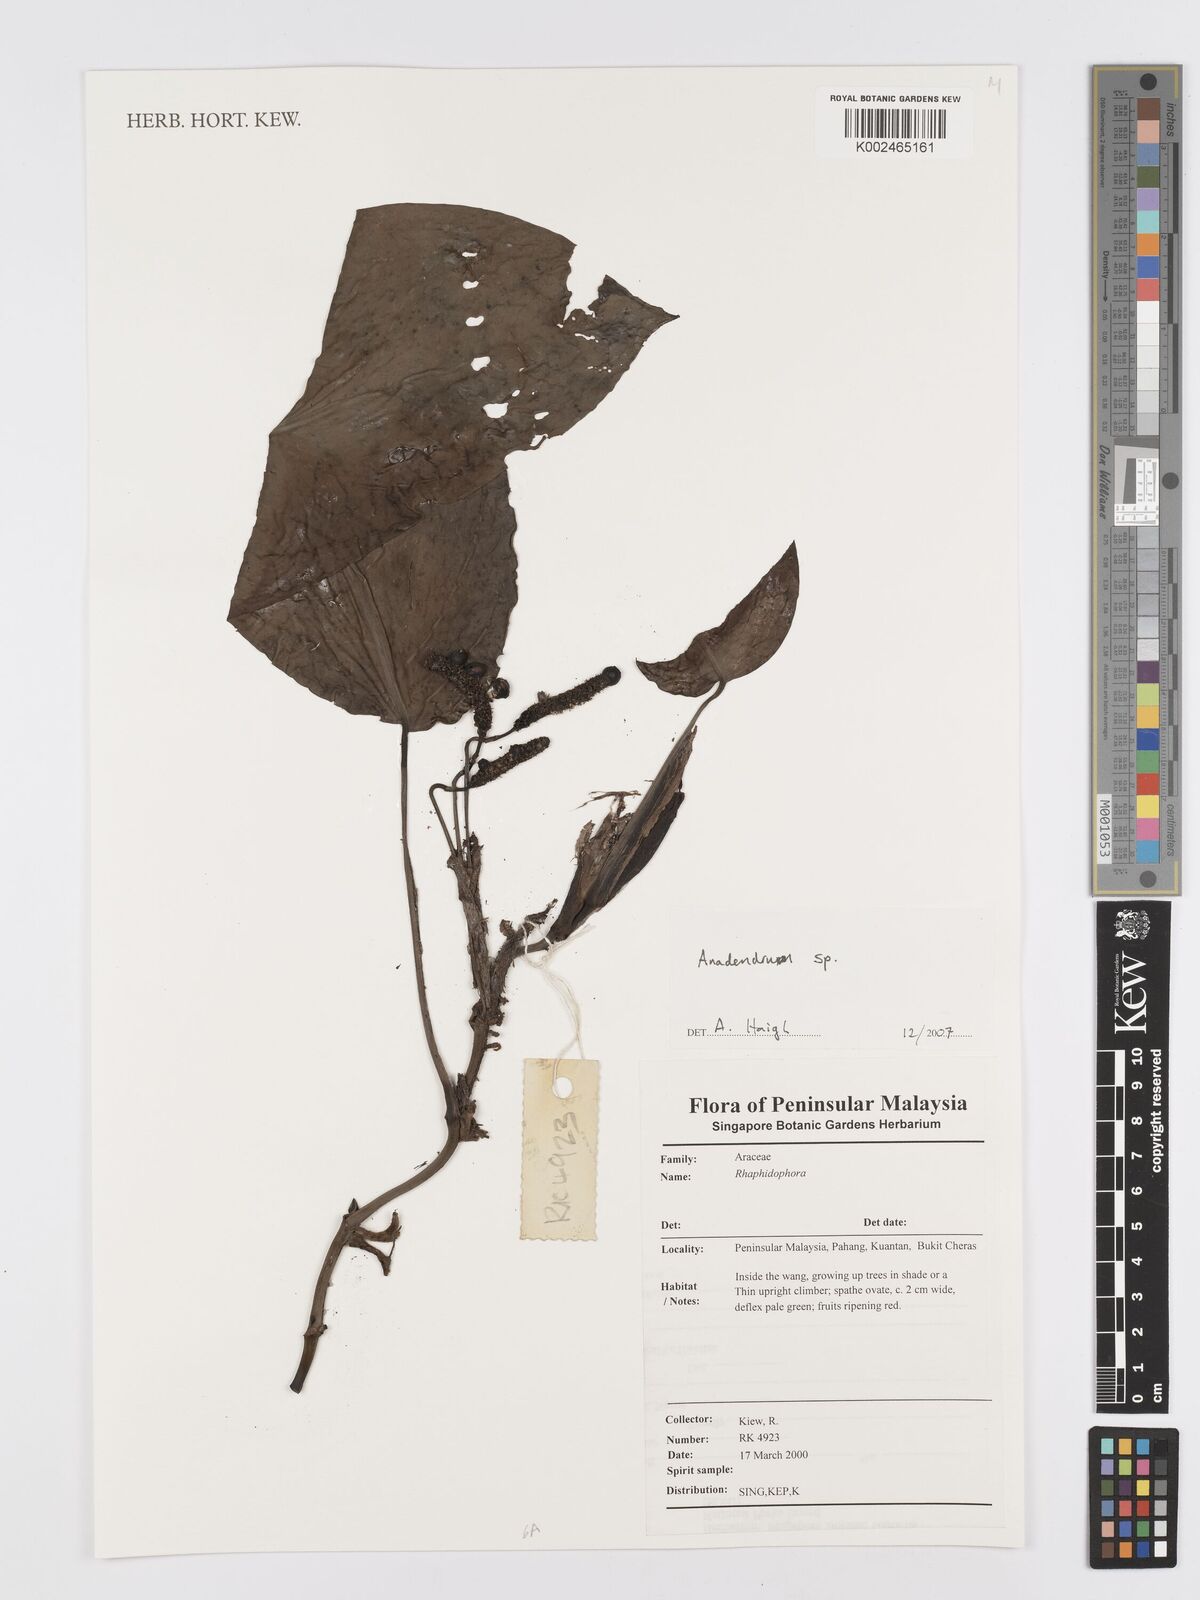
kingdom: Plantae
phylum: Tracheophyta
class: Liliopsida
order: Alismatales
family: Araceae
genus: Anadendrum
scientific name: Anadendrum
